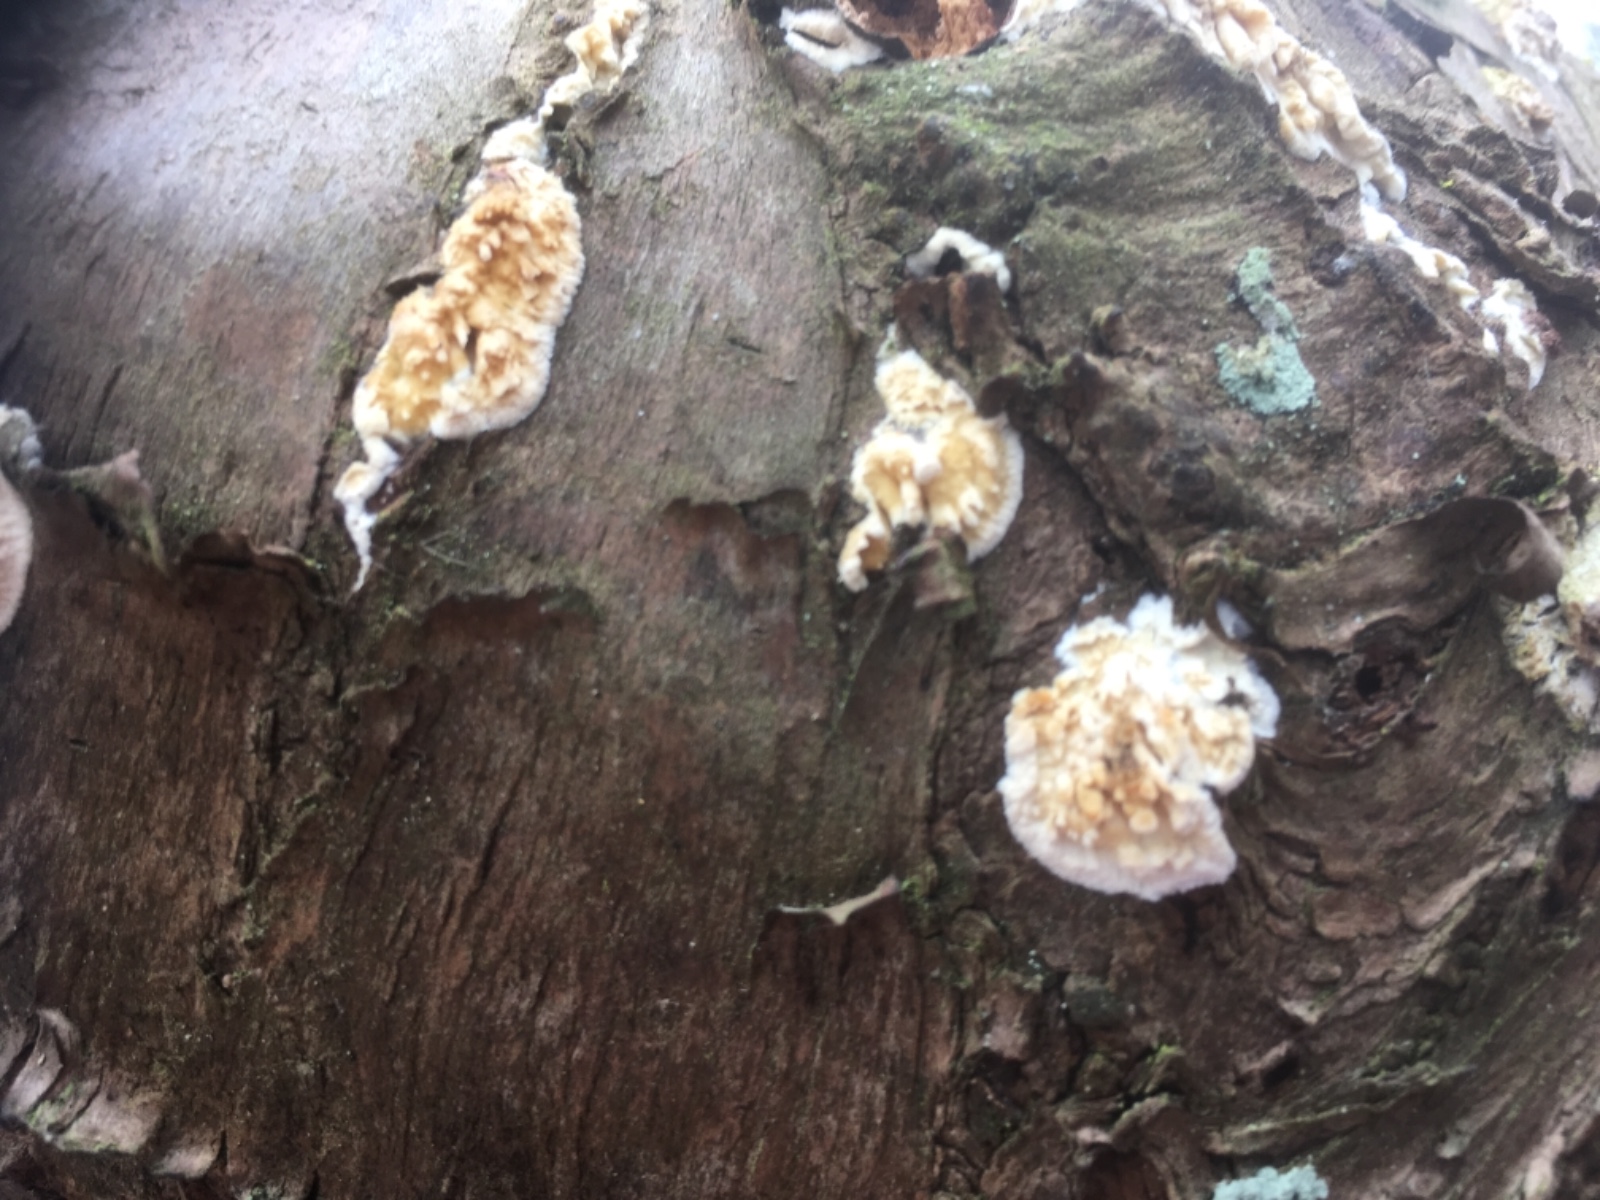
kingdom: Fungi
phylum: Basidiomycota
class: Agaricomycetes
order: Hymenochaetales
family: Schizoporaceae
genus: Xylodon
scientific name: Xylodon radula
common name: grovtandet kalkskind
